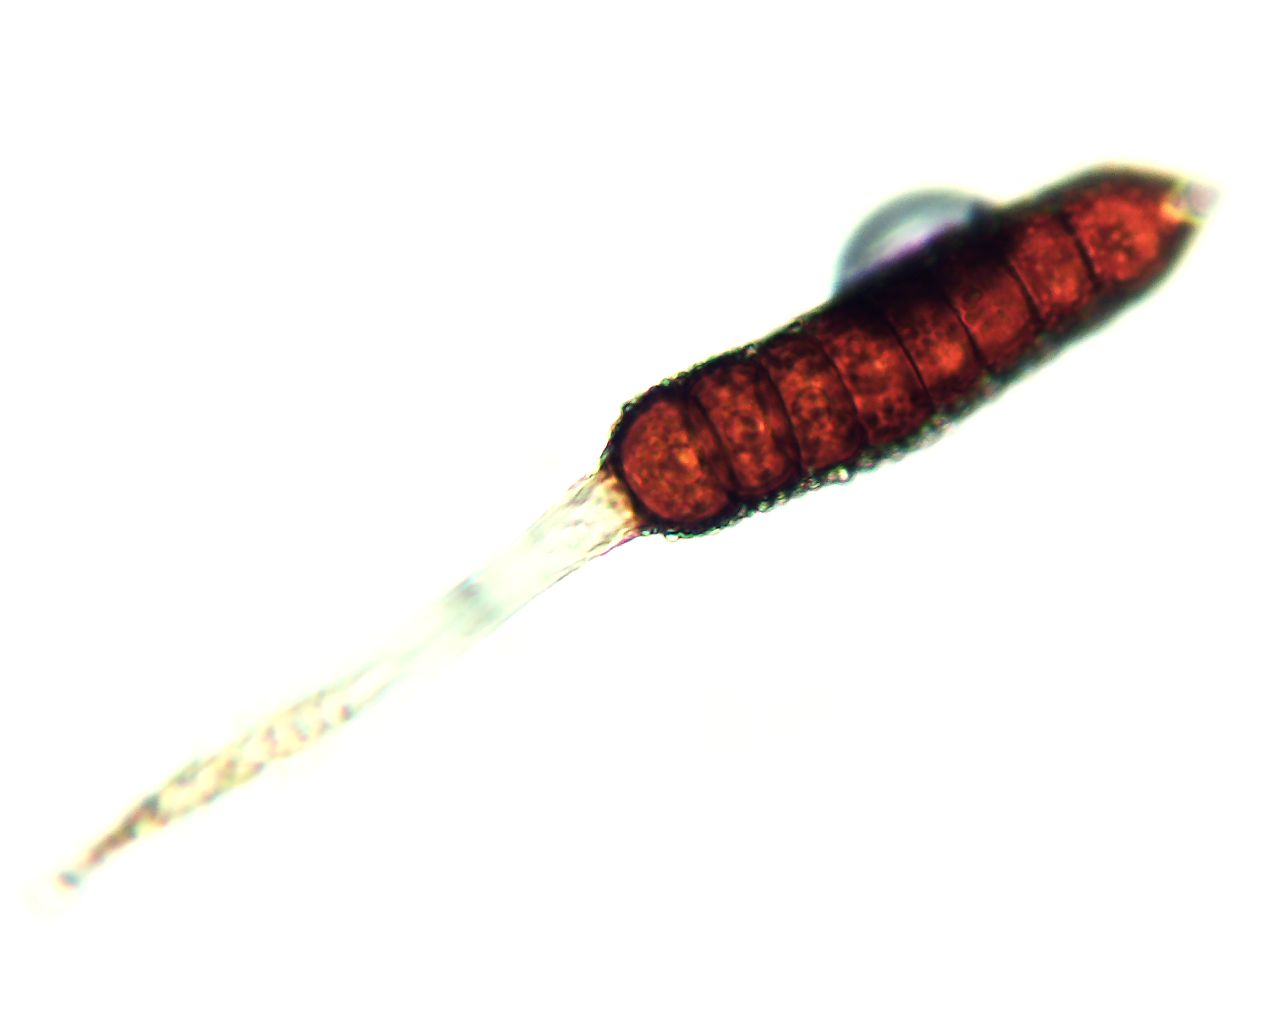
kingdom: Fungi
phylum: Basidiomycota
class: Pucciniomycetes
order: Pucciniales
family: Phragmidiaceae
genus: Phragmidium
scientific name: Phragmidium rubi-idaei
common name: hindbær-flercellerust
